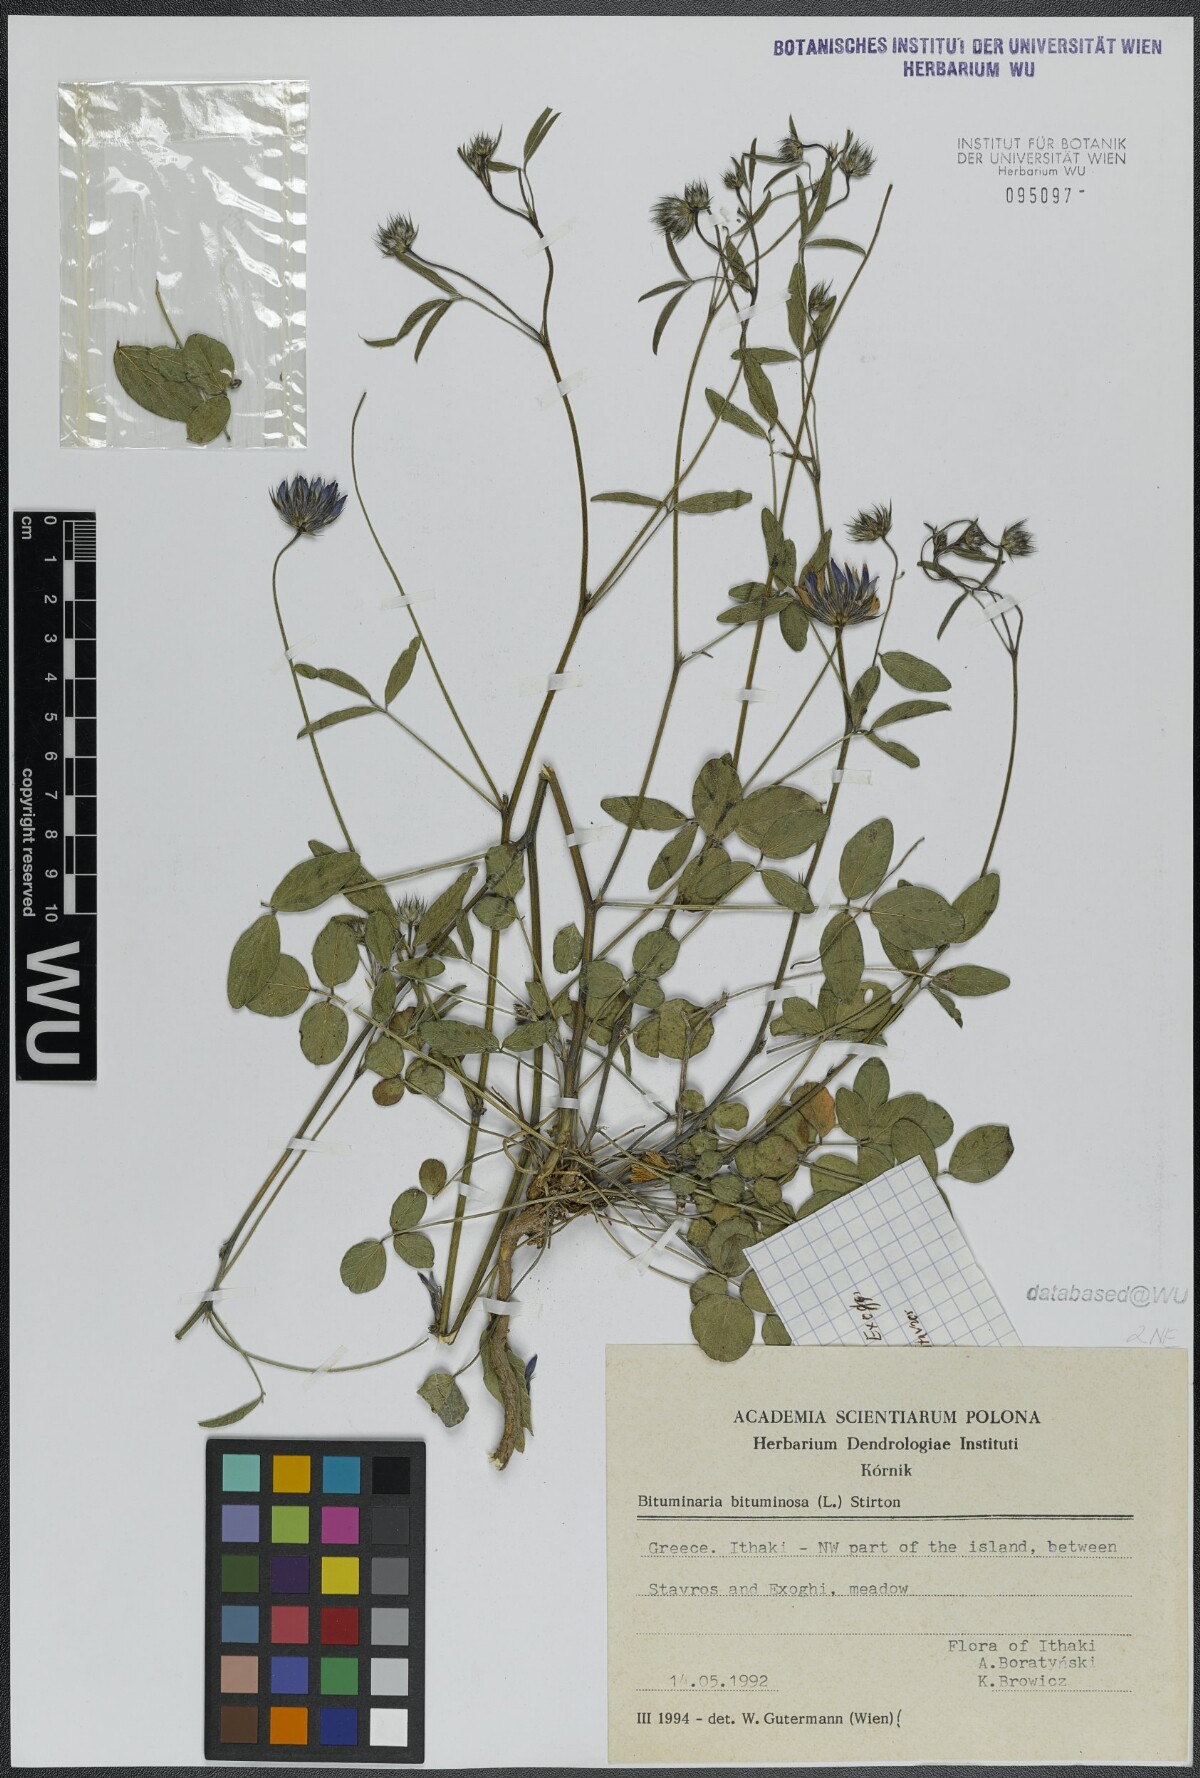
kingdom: Plantae
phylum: Tracheophyta
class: Magnoliopsida
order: Fabales
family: Fabaceae
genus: Bituminaria
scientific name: Bituminaria bituminosa
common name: Arabian pea
